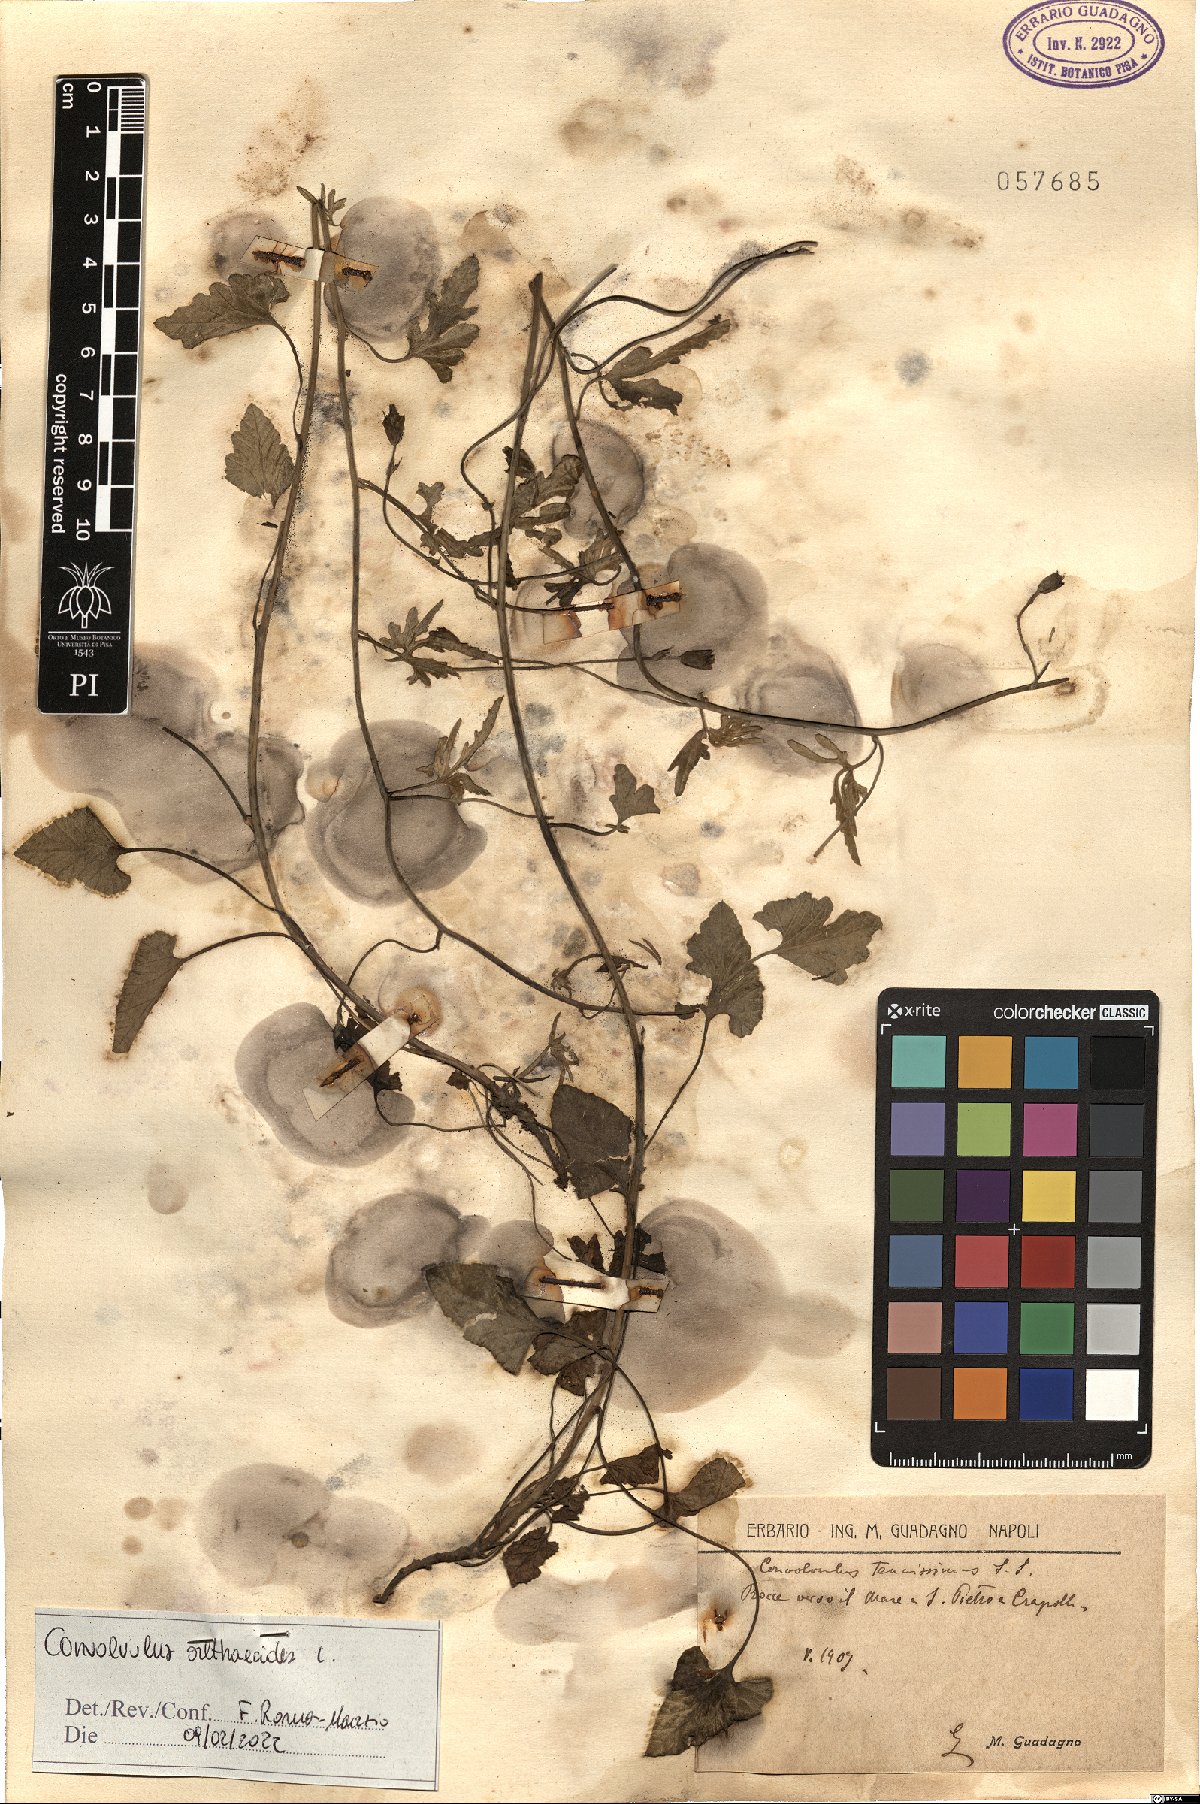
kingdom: Plantae
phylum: Tracheophyta
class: Magnoliopsida
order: Solanales
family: Convolvulaceae
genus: Convolvulus
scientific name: Convolvulus althaeoides
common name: Mallow bindweed
